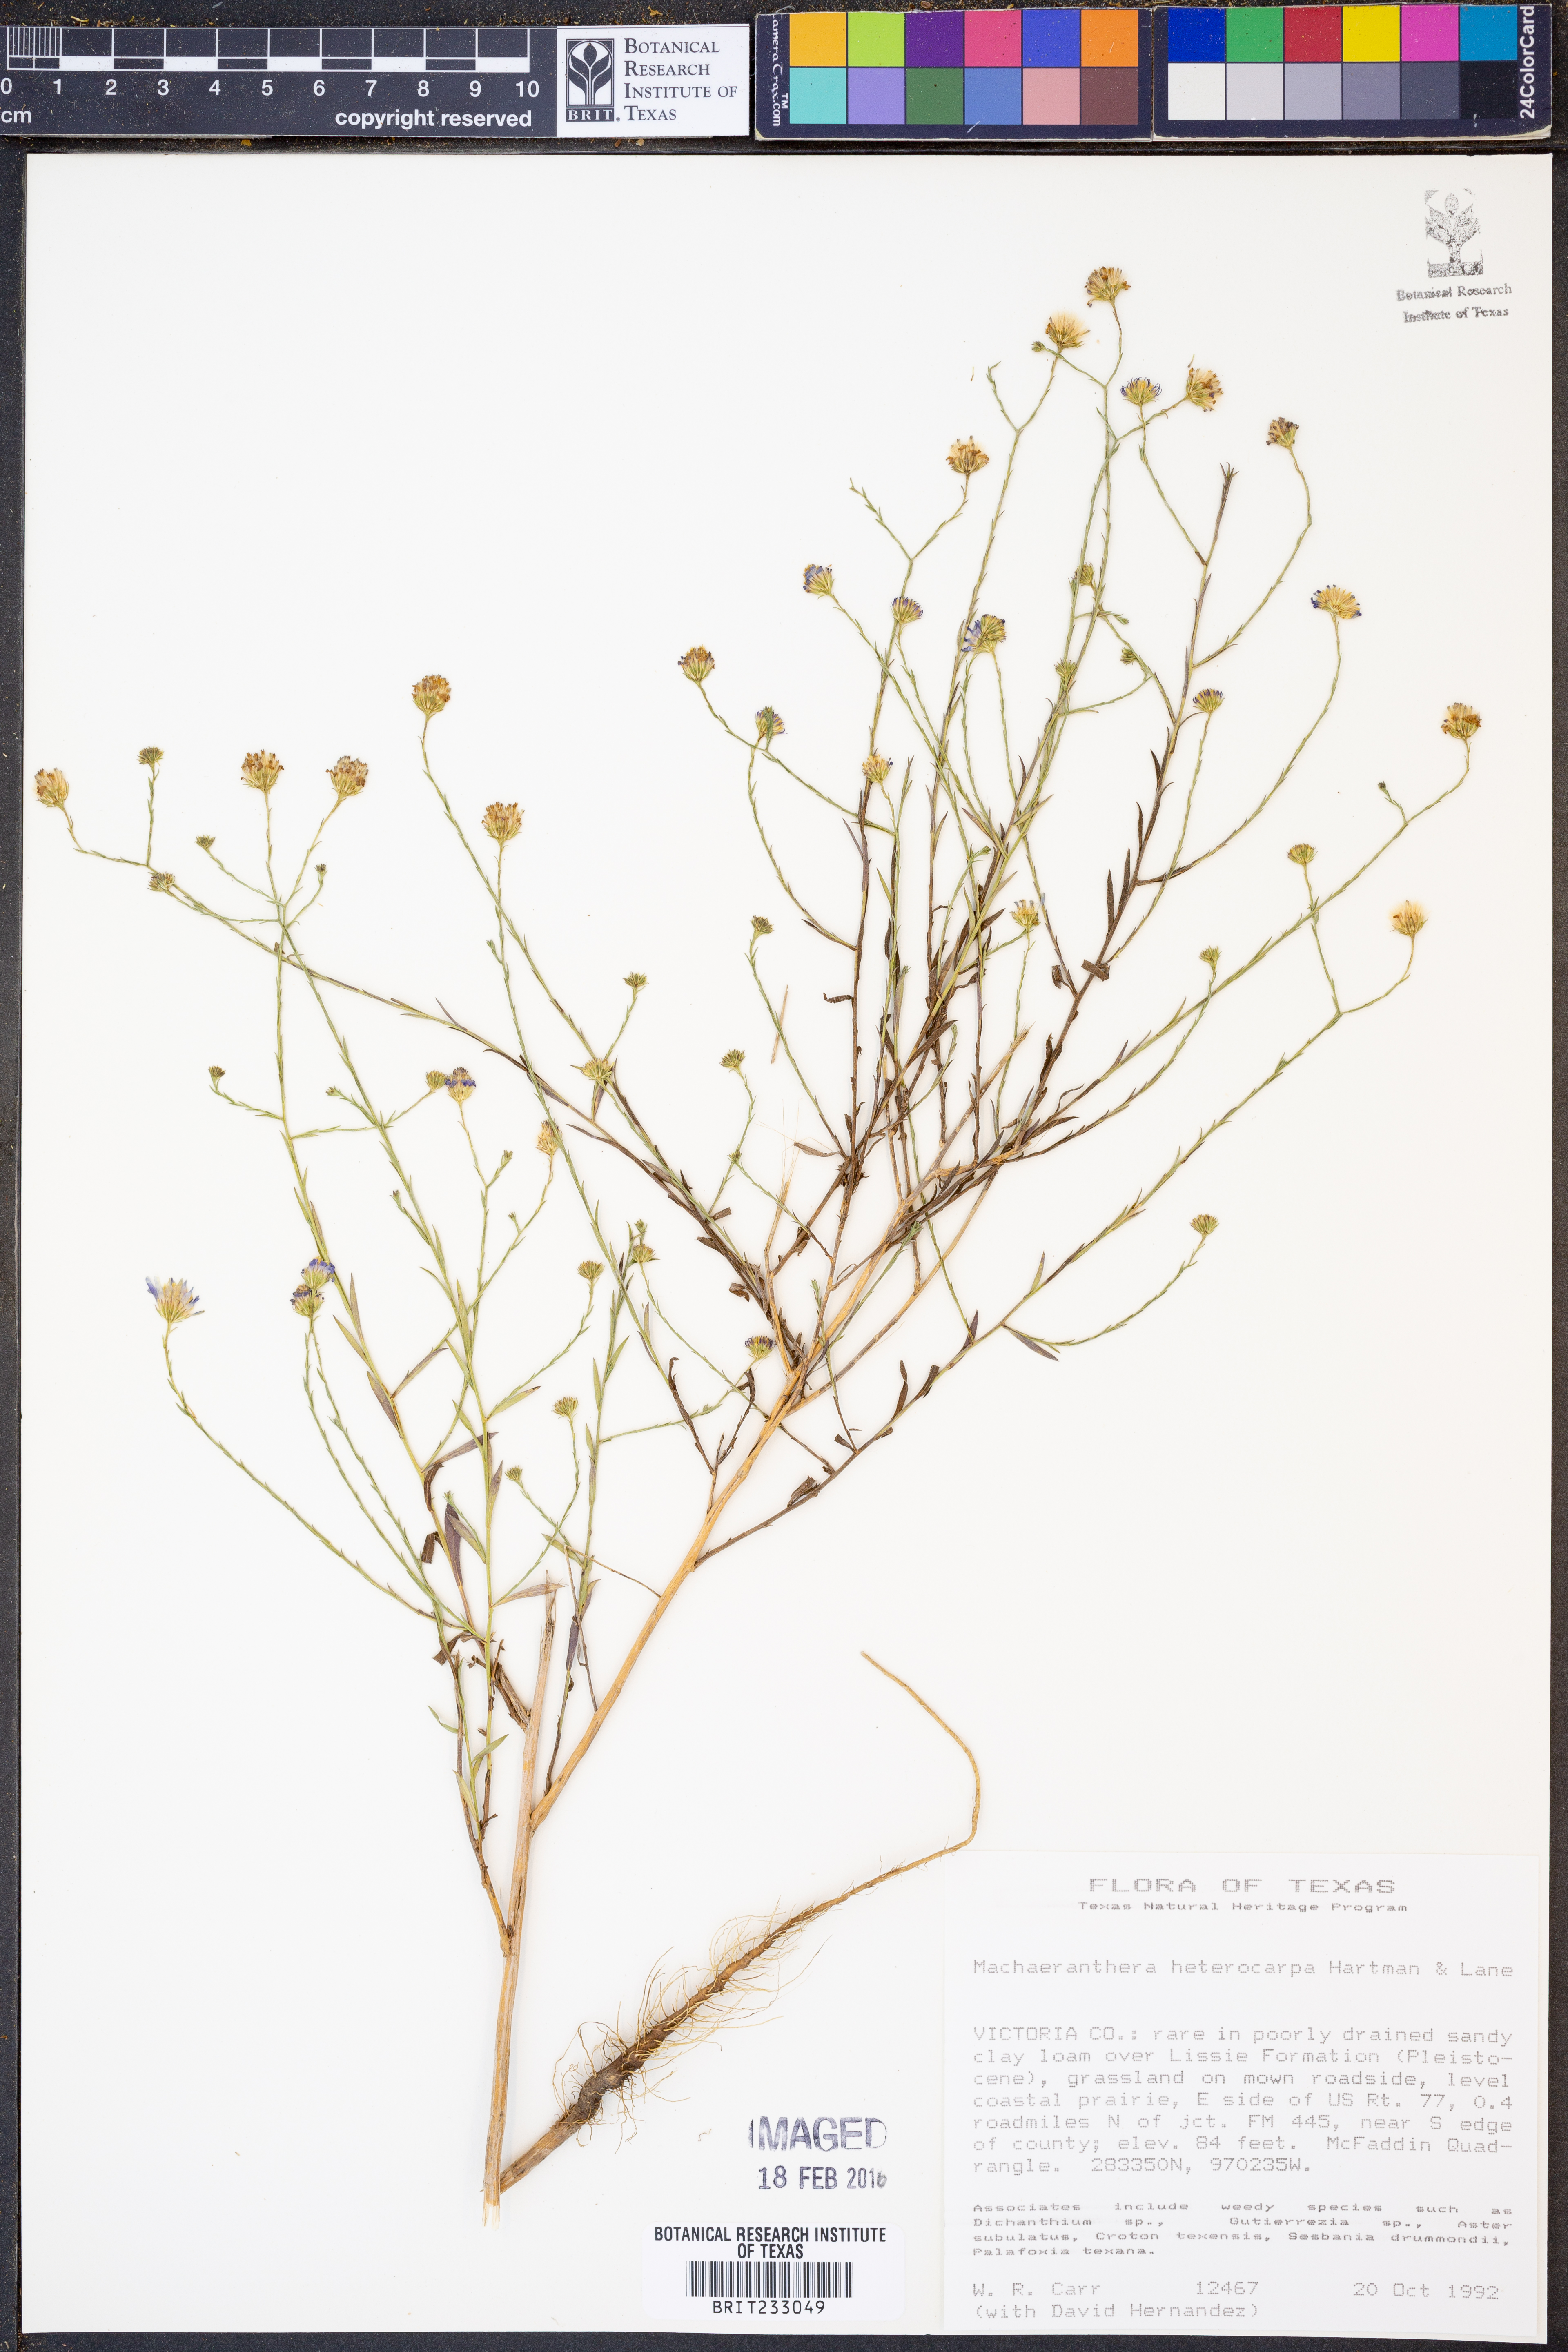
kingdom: Plantae
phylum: Tracheophyta
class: Magnoliopsida
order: Asterales
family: Asteraceae
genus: Psilactis
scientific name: Psilactis heterocarpa
